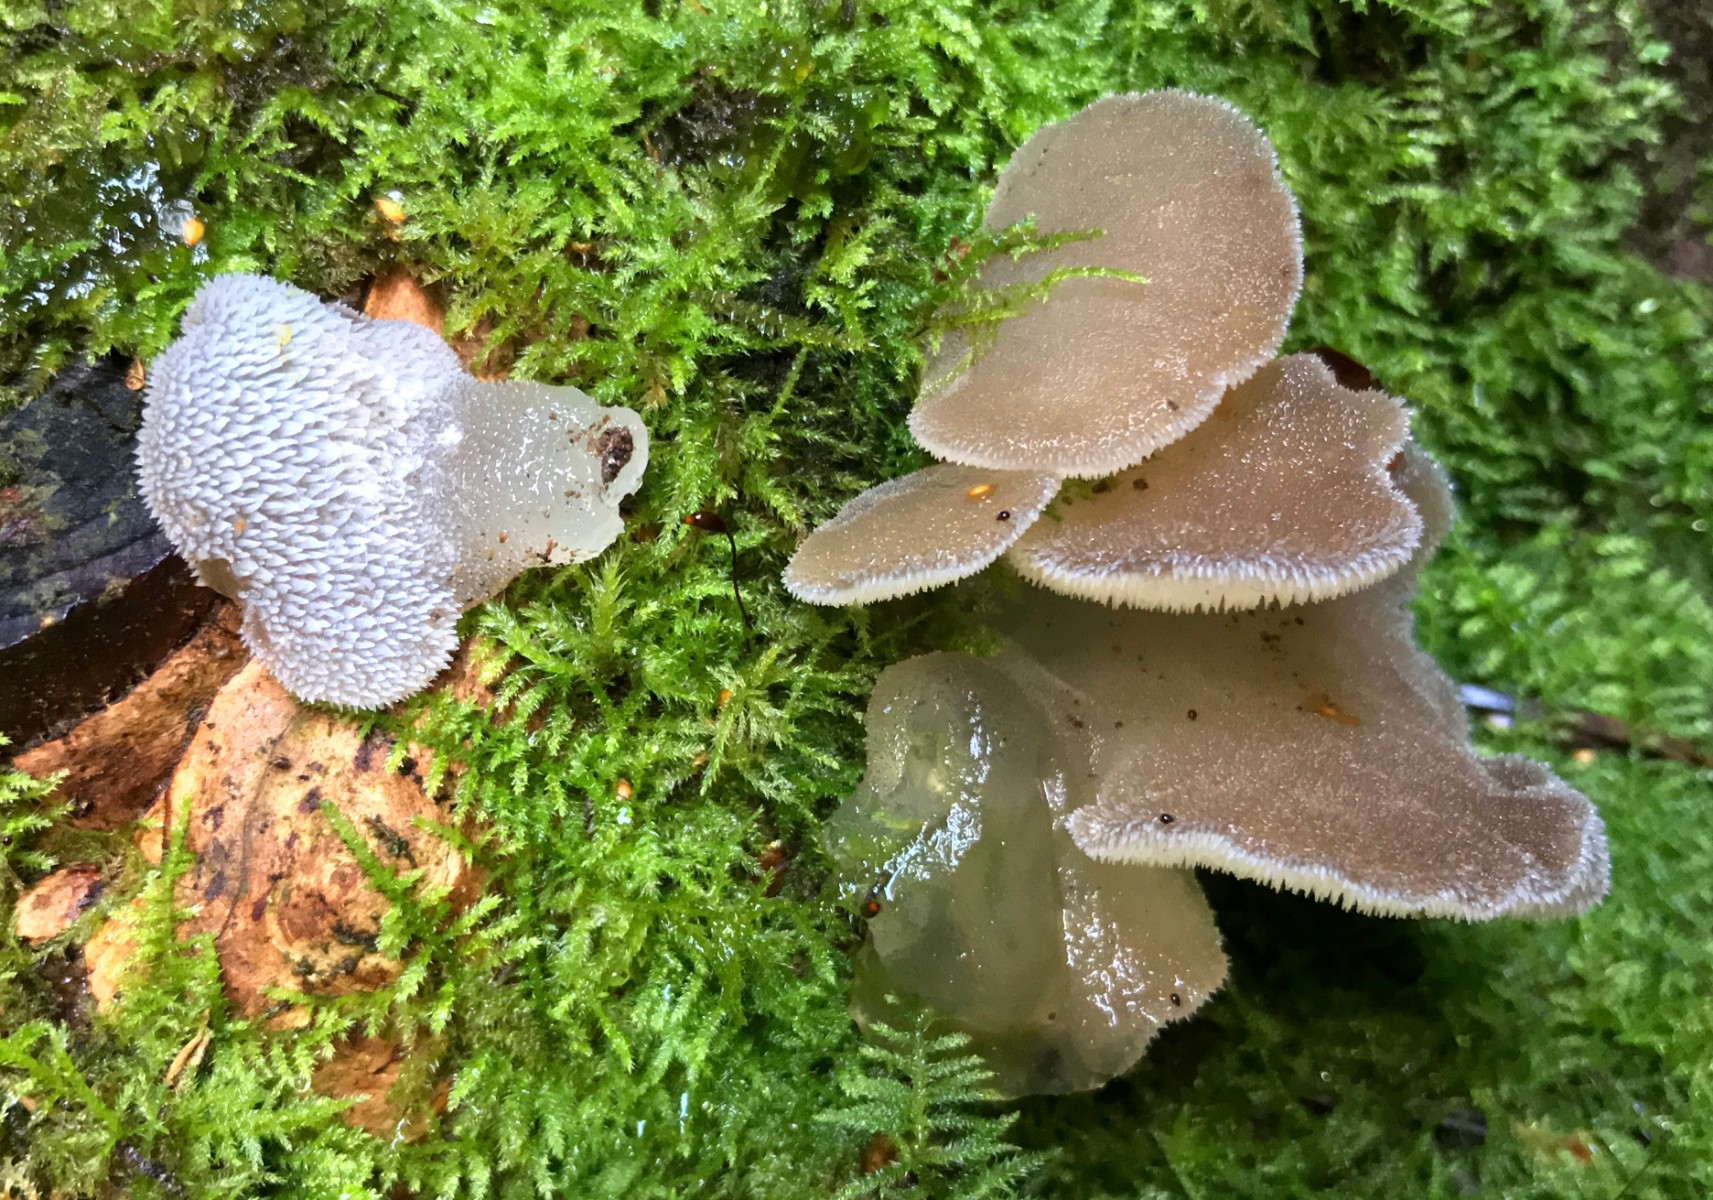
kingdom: Fungi
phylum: Basidiomycota
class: Agaricomycetes
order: Auriculariales
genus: Pseudohydnum
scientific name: Pseudohydnum gelatinosum
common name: bævretand
